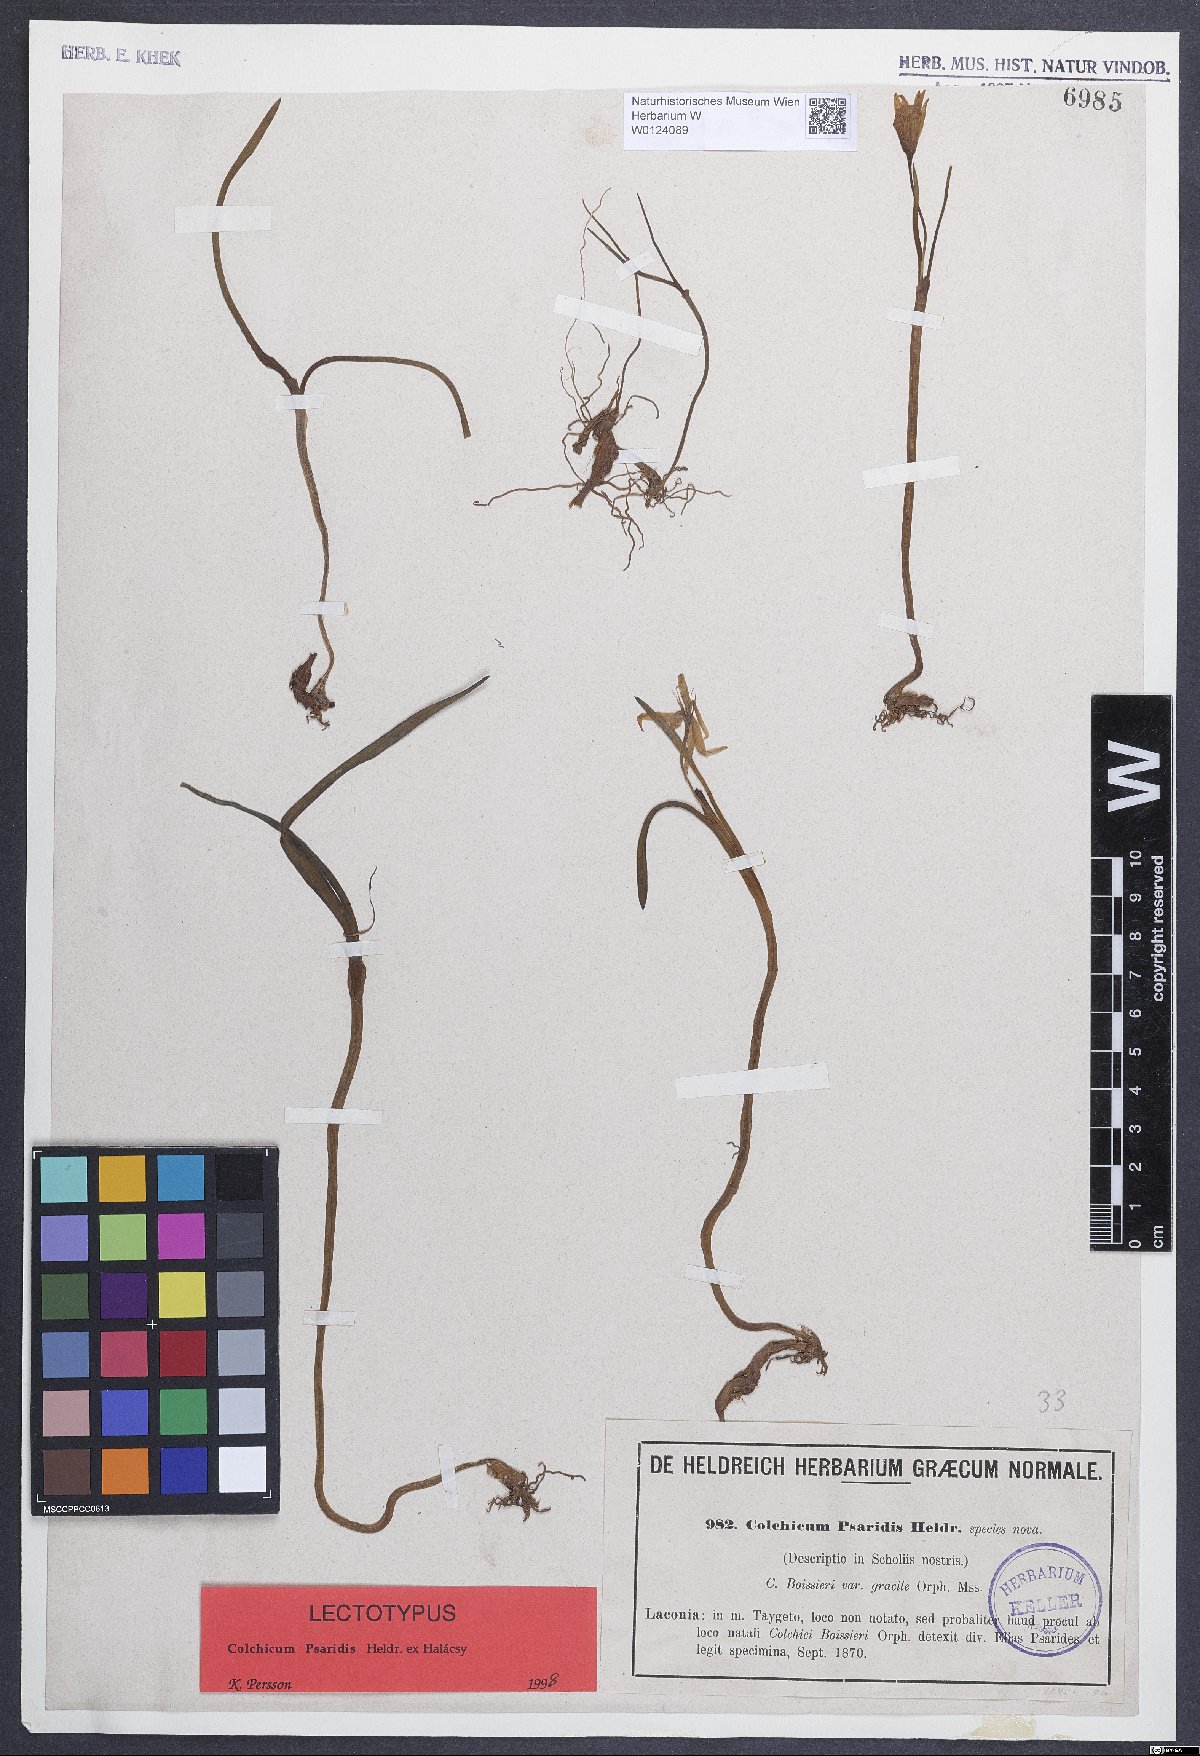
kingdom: Plantae
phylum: Tracheophyta
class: Liliopsida
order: Liliales
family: Colchicaceae
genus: Colchicum
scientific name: Colchicum zahnii
